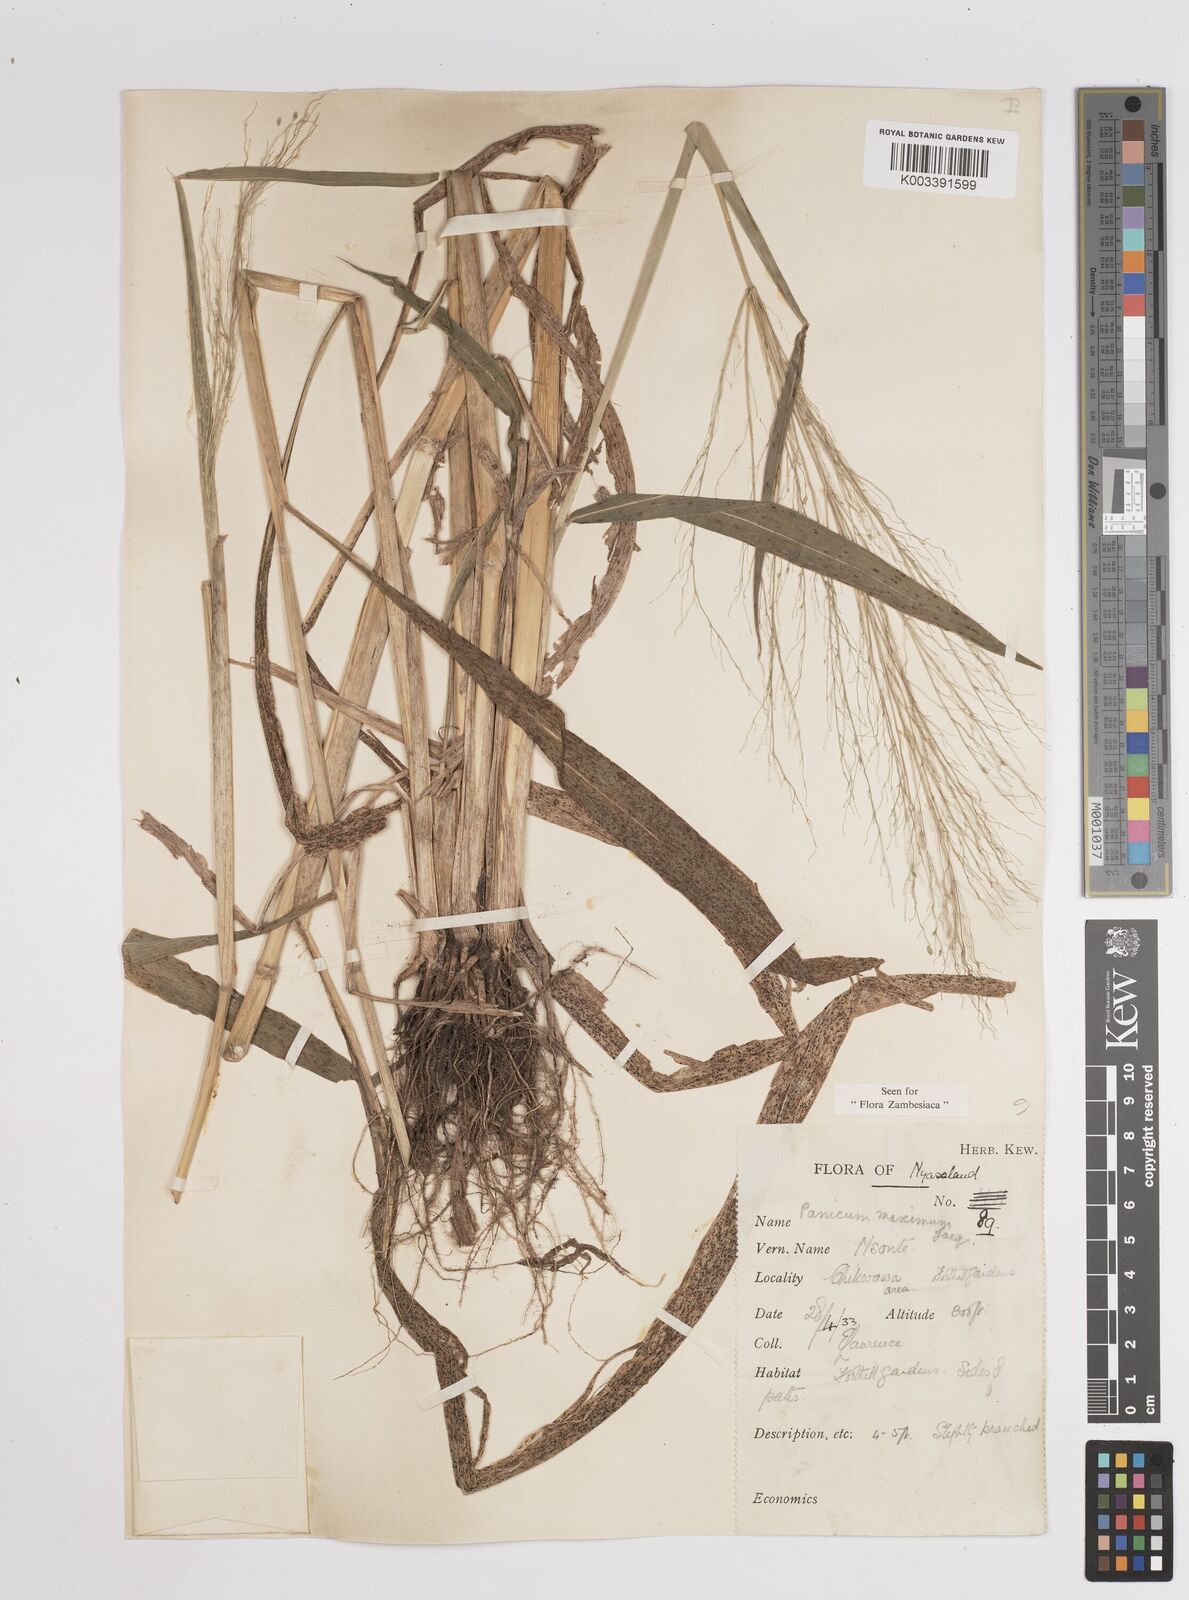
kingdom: Plantae
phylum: Tracheophyta
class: Liliopsida
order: Poales
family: Poaceae
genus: Megathyrsus
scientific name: Megathyrsus maximus
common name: Guineagrass
